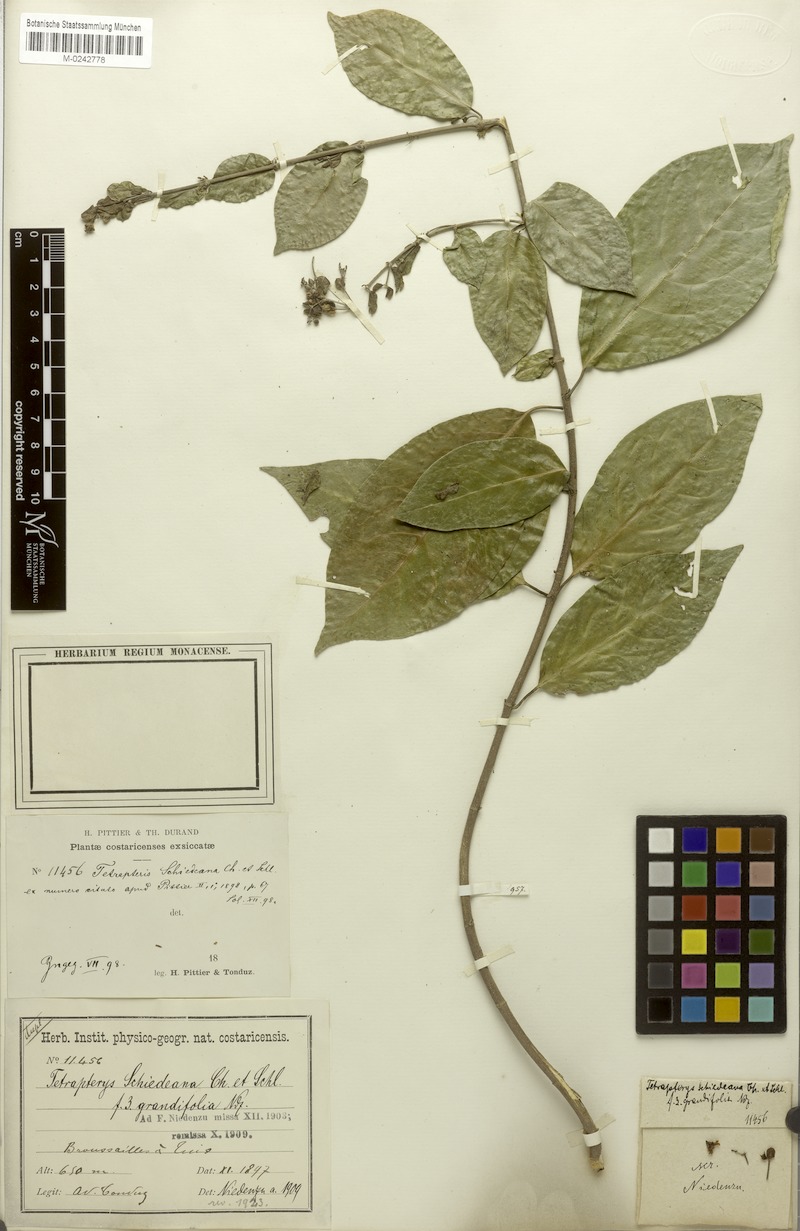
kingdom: Plantae
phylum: Tracheophyta
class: Magnoliopsida
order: Malpighiales
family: Malpighiaceae
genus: Tetrapterys
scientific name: Tetrapterys schiedeana
